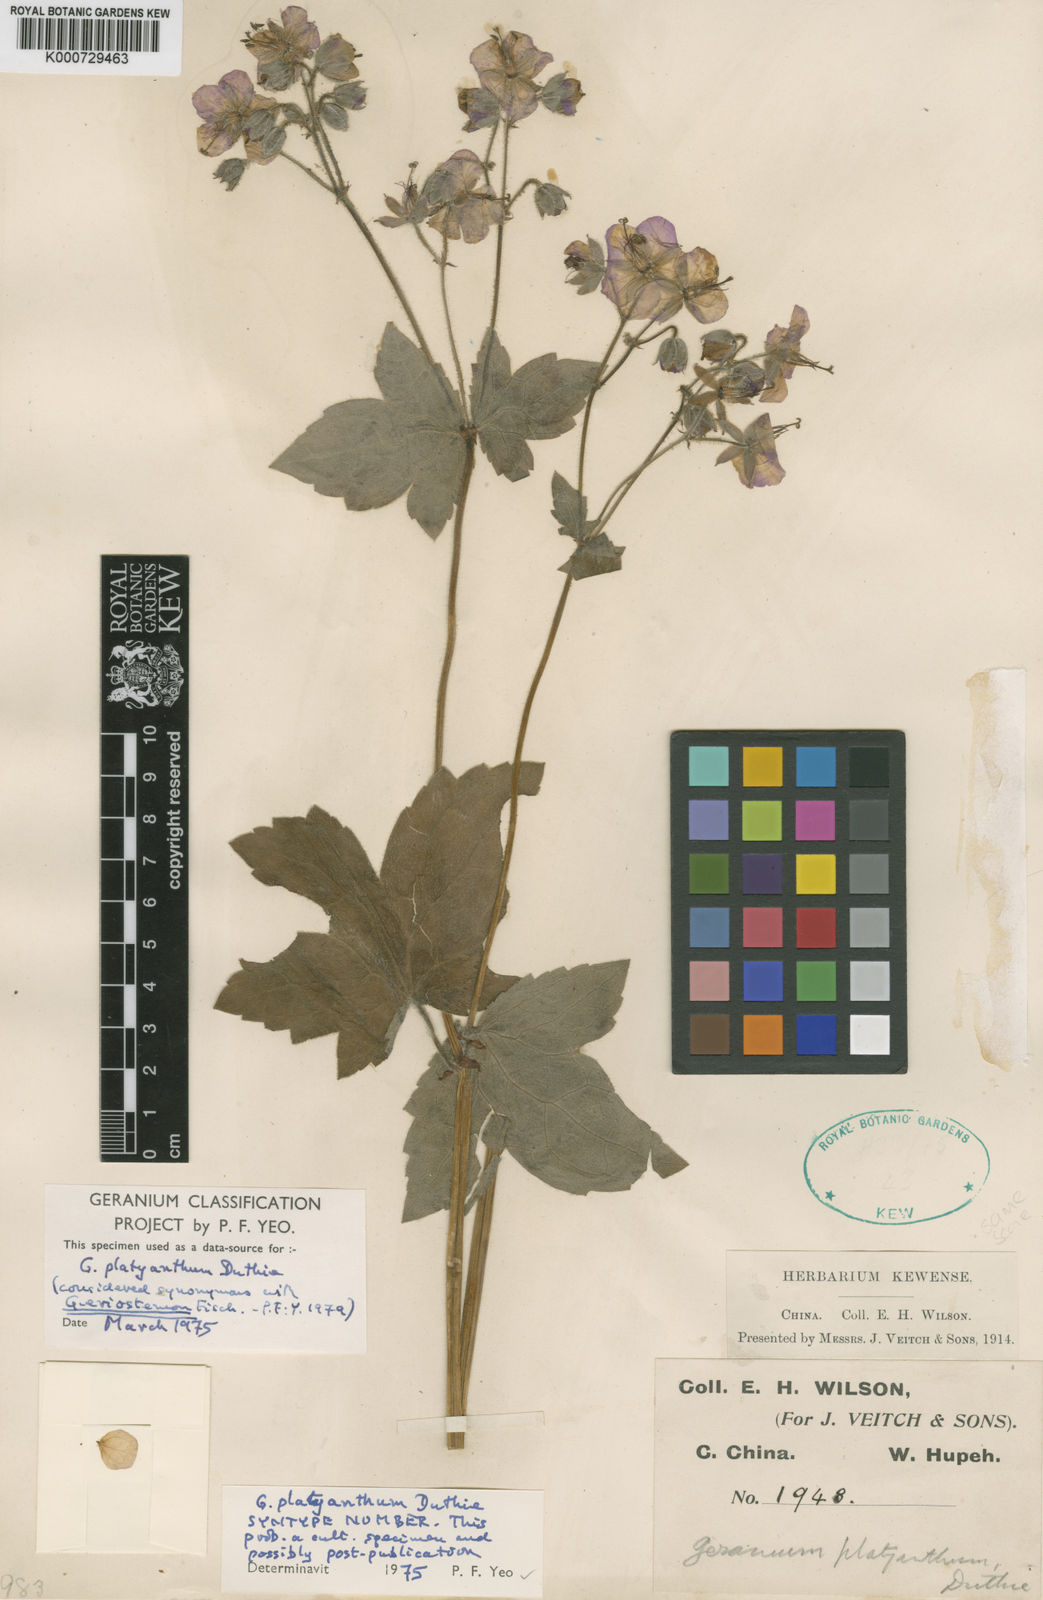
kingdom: Plantae
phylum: Tracheophyta
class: Magnoliopsida
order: Geraniales
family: Geraniaceae
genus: Geranium
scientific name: Geranium platyanthum
